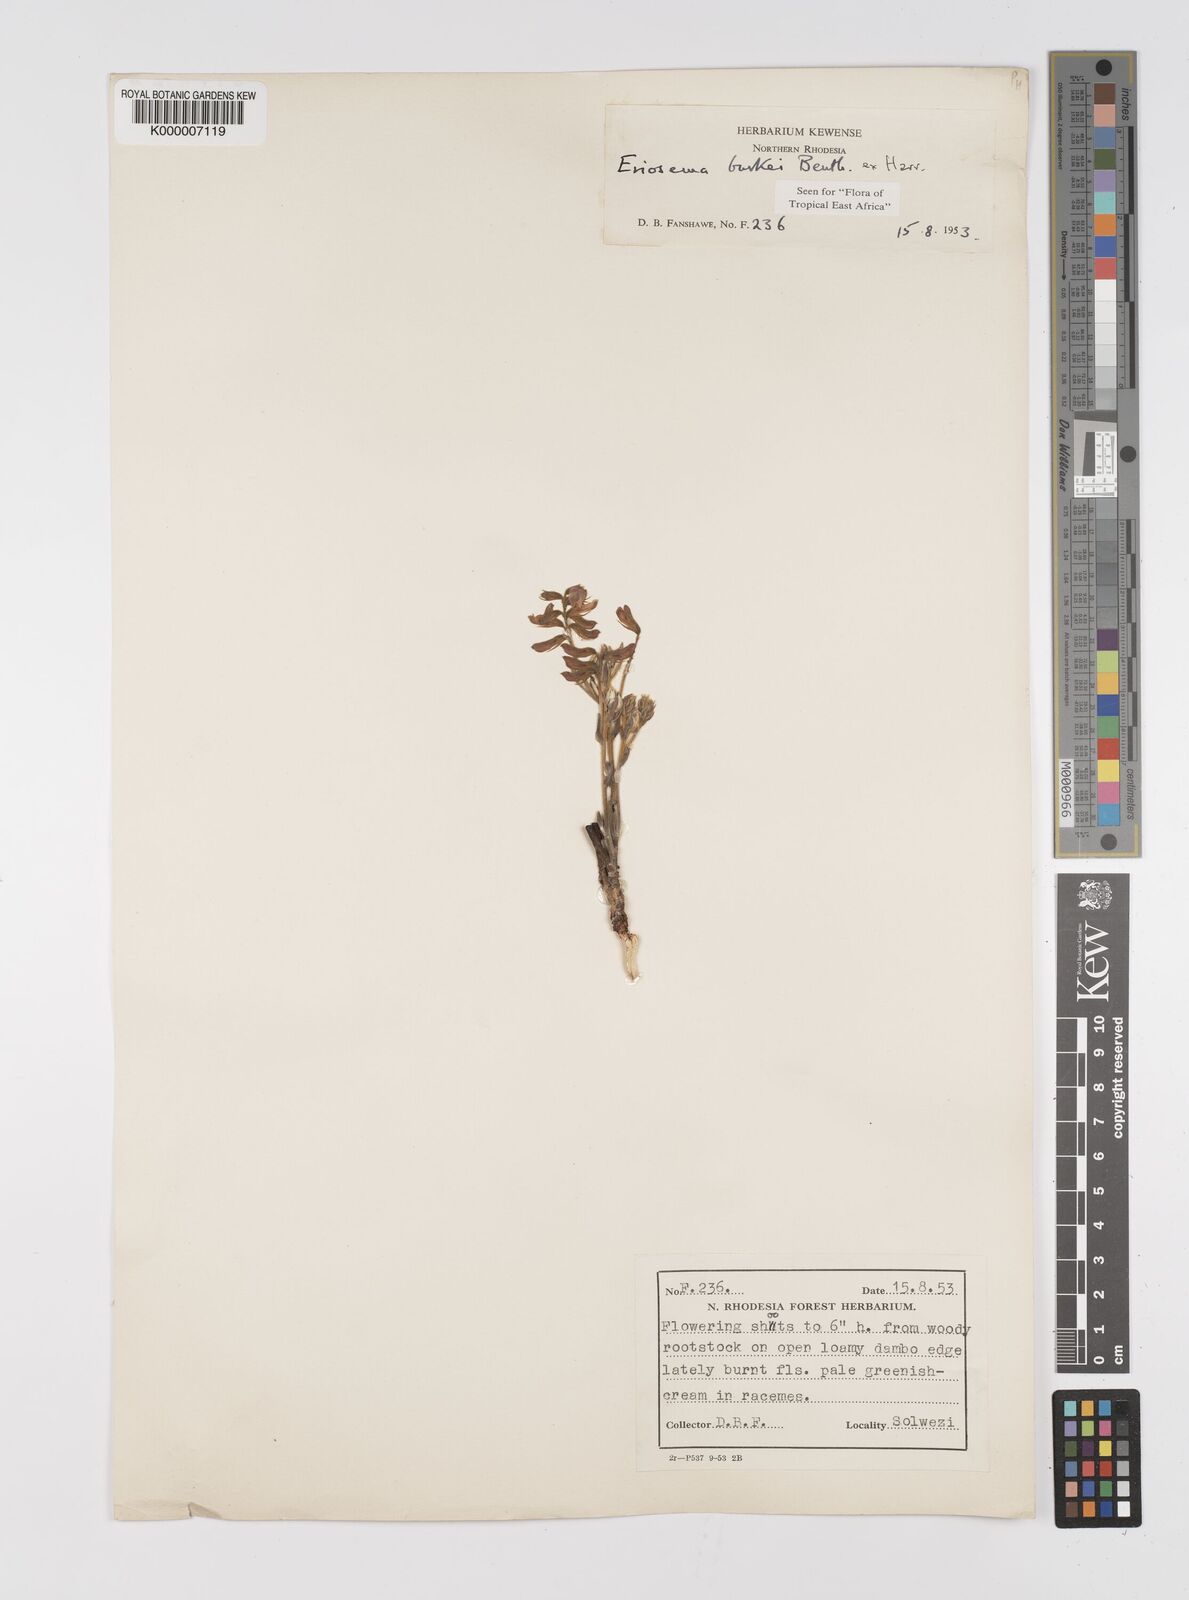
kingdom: Plantae
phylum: Tracheophyta
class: Magnoliopsida
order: Fabales
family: Fabaceae
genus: Eriosema
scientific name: Eriosema burkei
